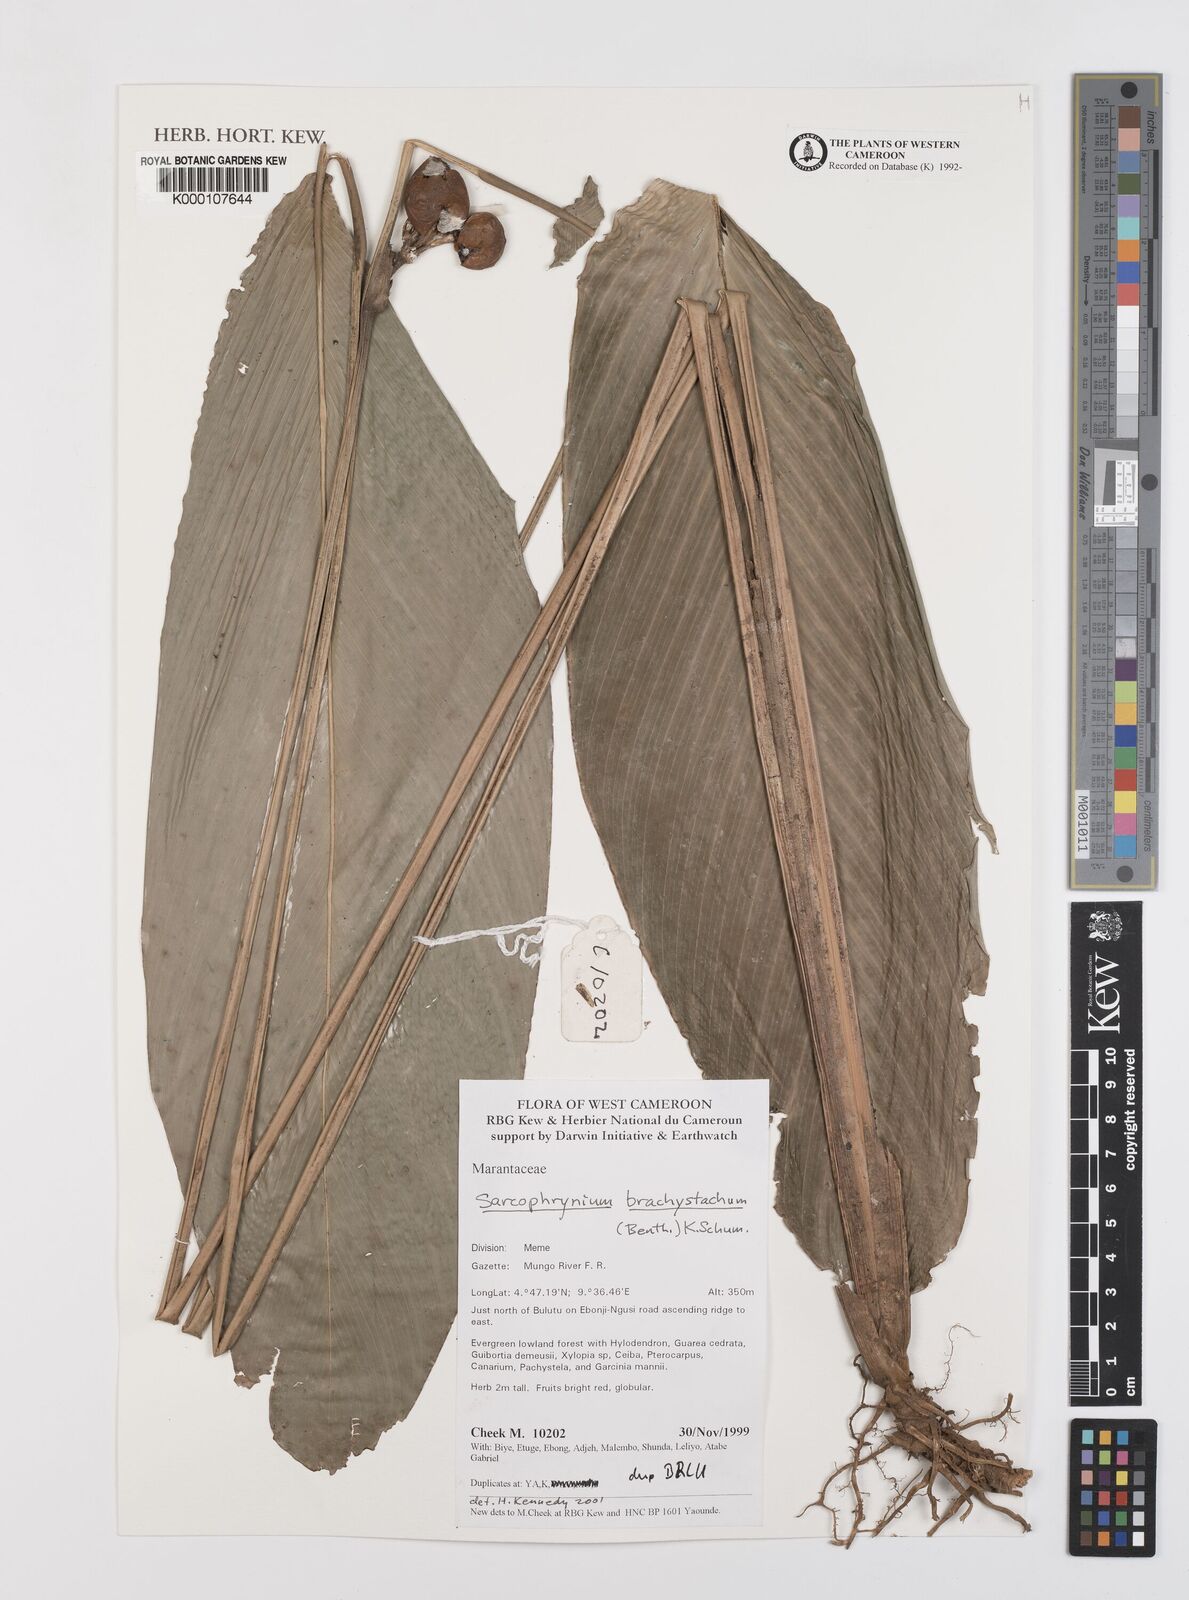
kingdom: Plantae
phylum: Tracheophyta
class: Liliopsida
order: Zingiberales
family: Marantaceae
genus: Sarcophrynium
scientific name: Sarcophrynium
